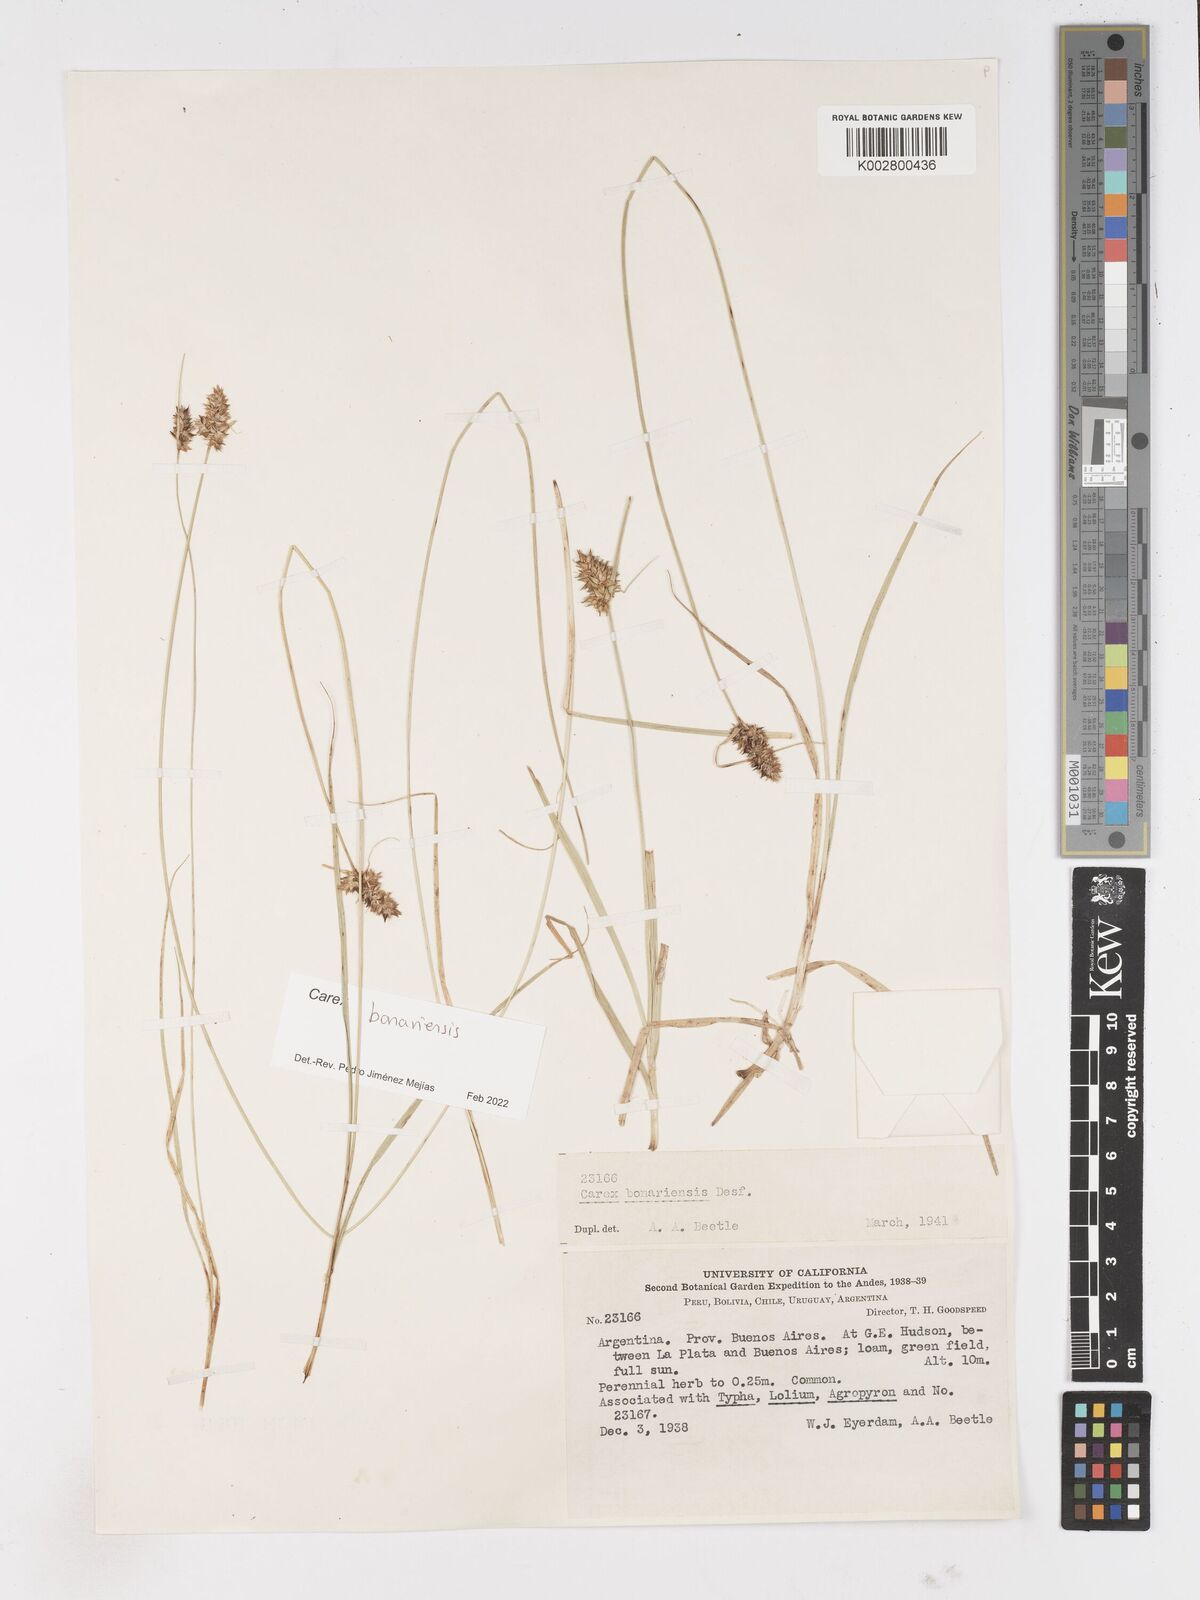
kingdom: Plantae
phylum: Tracheophyta
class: Liliopsida
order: Poales
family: Cyperaceae
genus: Carex
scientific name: Carex bonariensis
